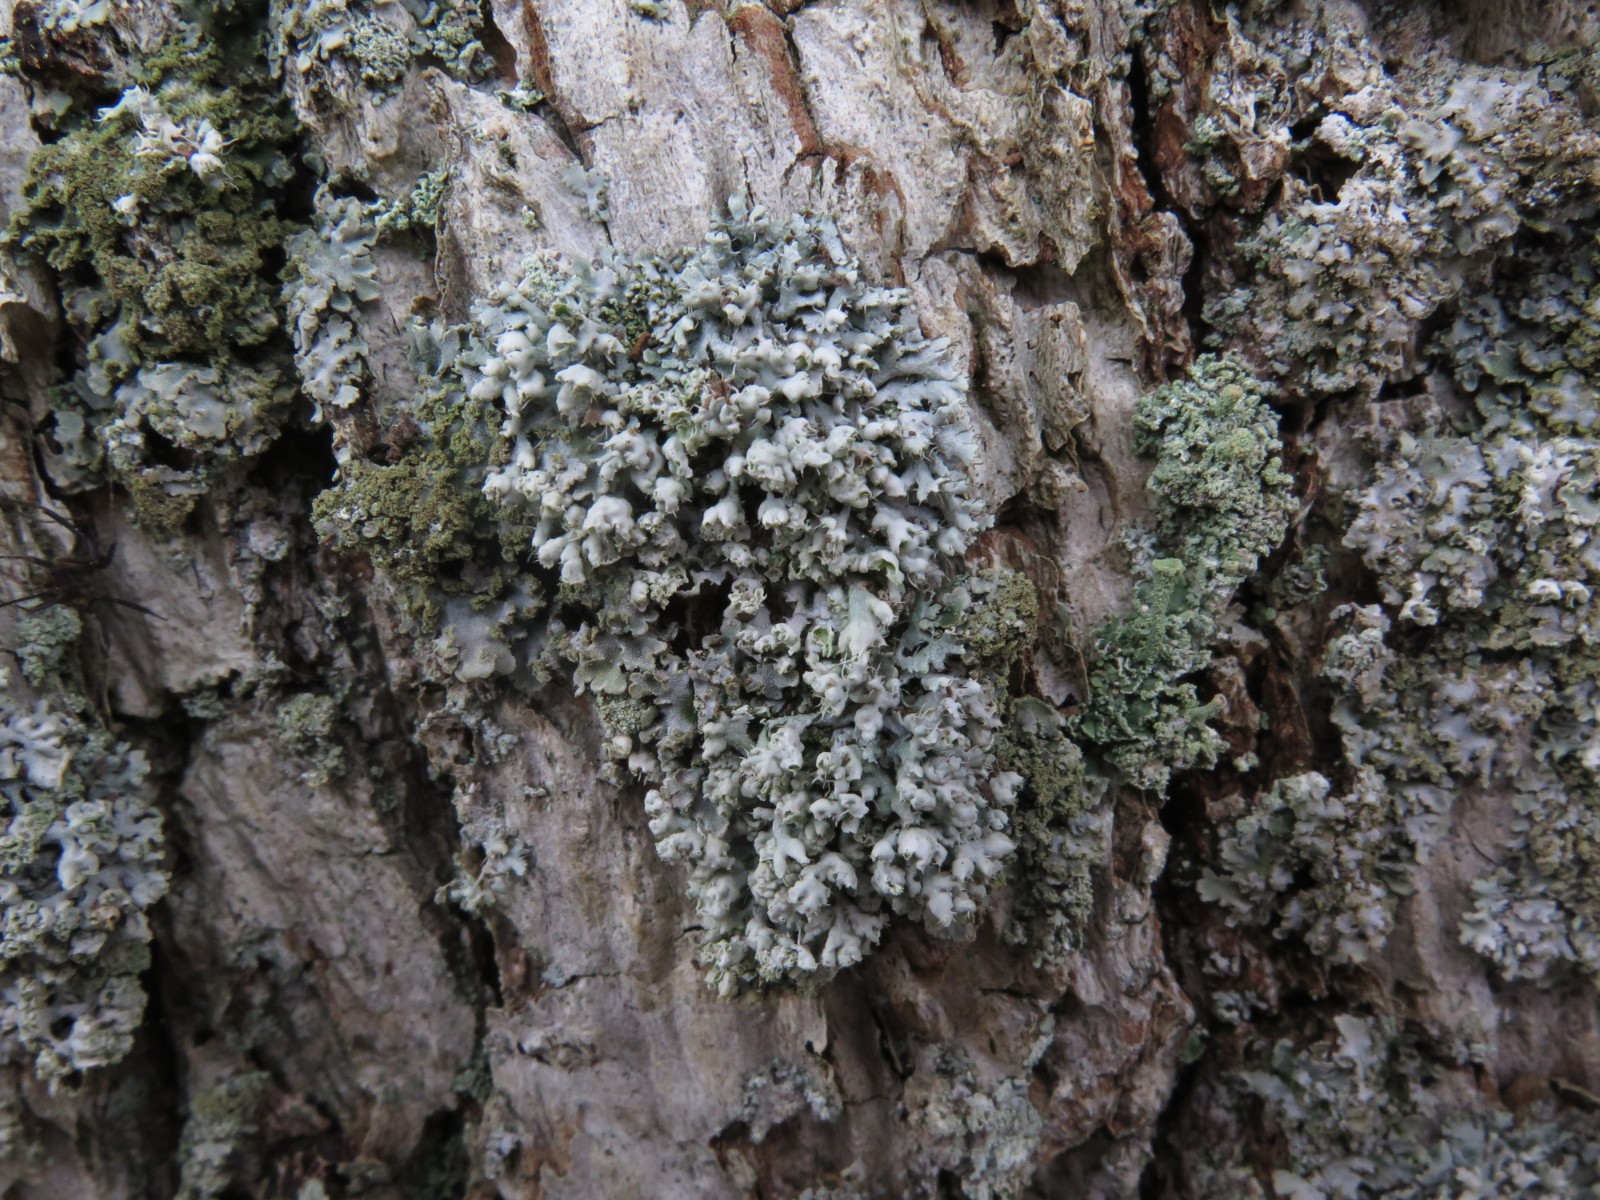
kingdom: Fungi
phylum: Ascomycota
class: Lecanoromycetes
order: Caliciales
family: Physciaceae
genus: Physcia
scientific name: Physcia adscendens
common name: hætte-rosetlav
